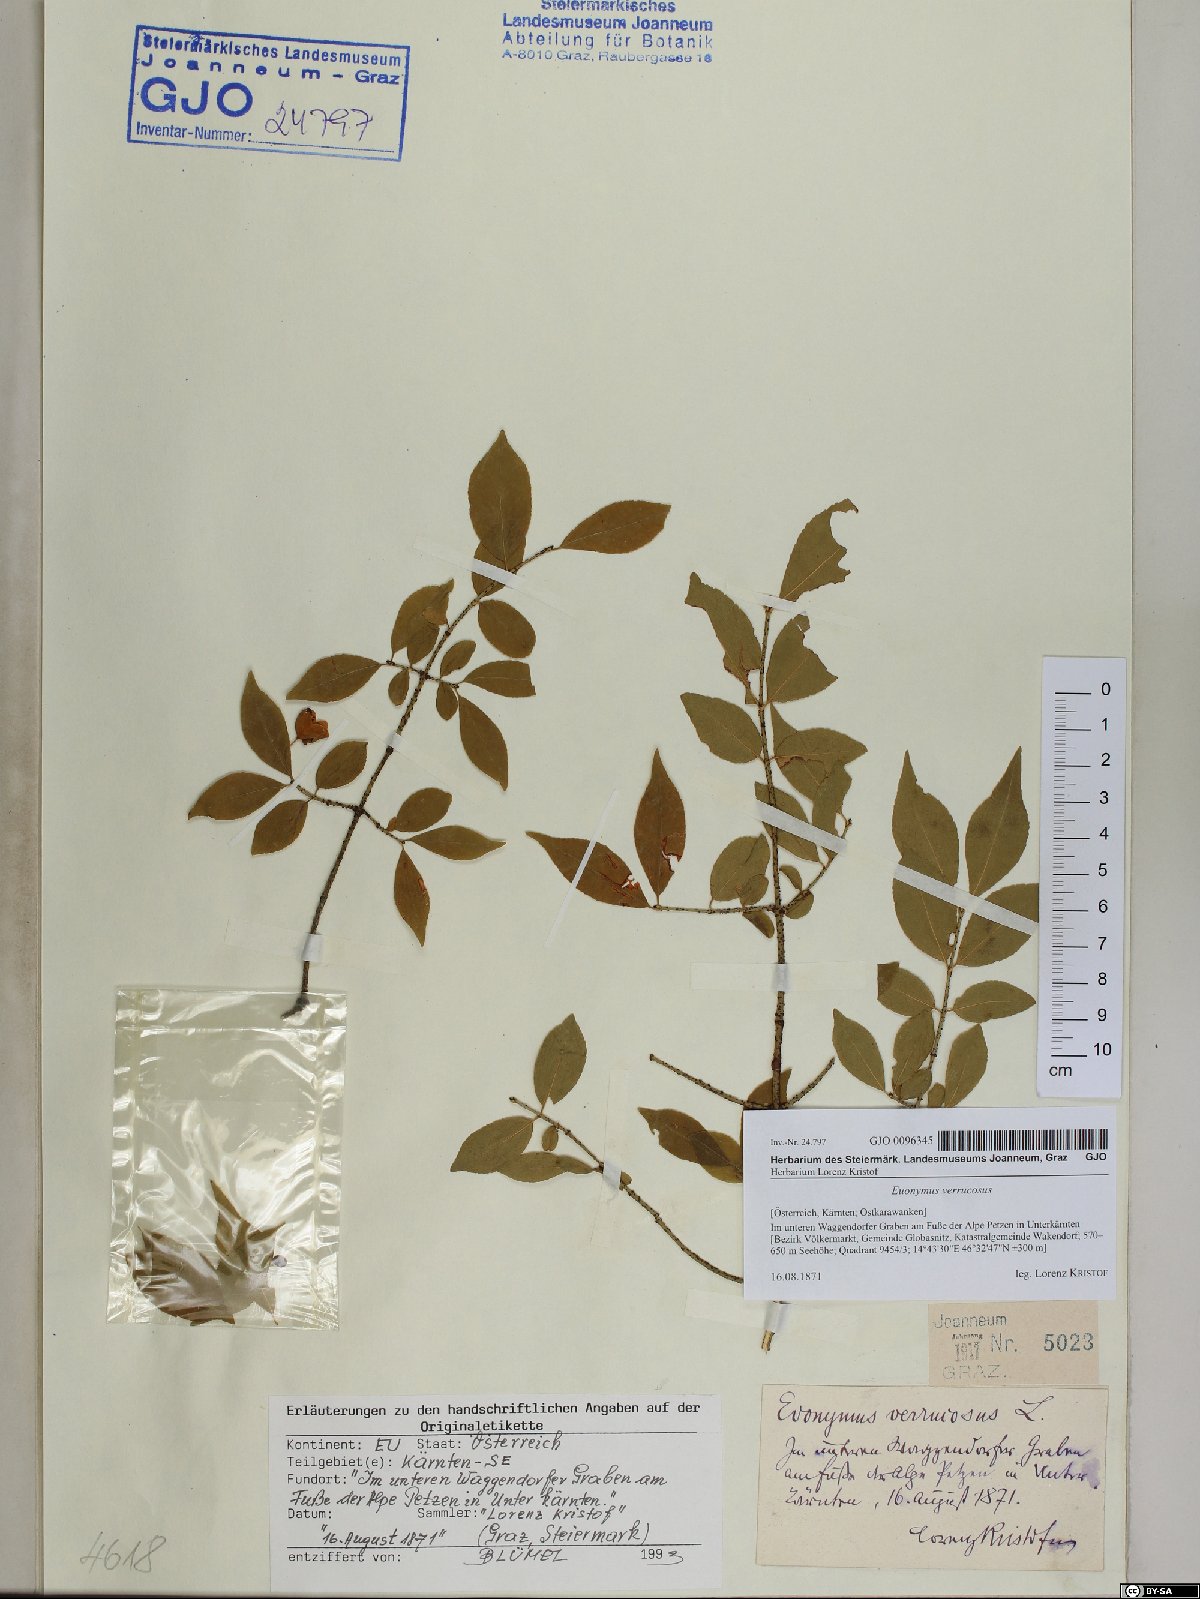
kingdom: Plantae
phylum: Tracheophyta
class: Magnoliopsida
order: Celastrales
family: Celastraceae
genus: Euonymus
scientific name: Euonymus verrucosus
